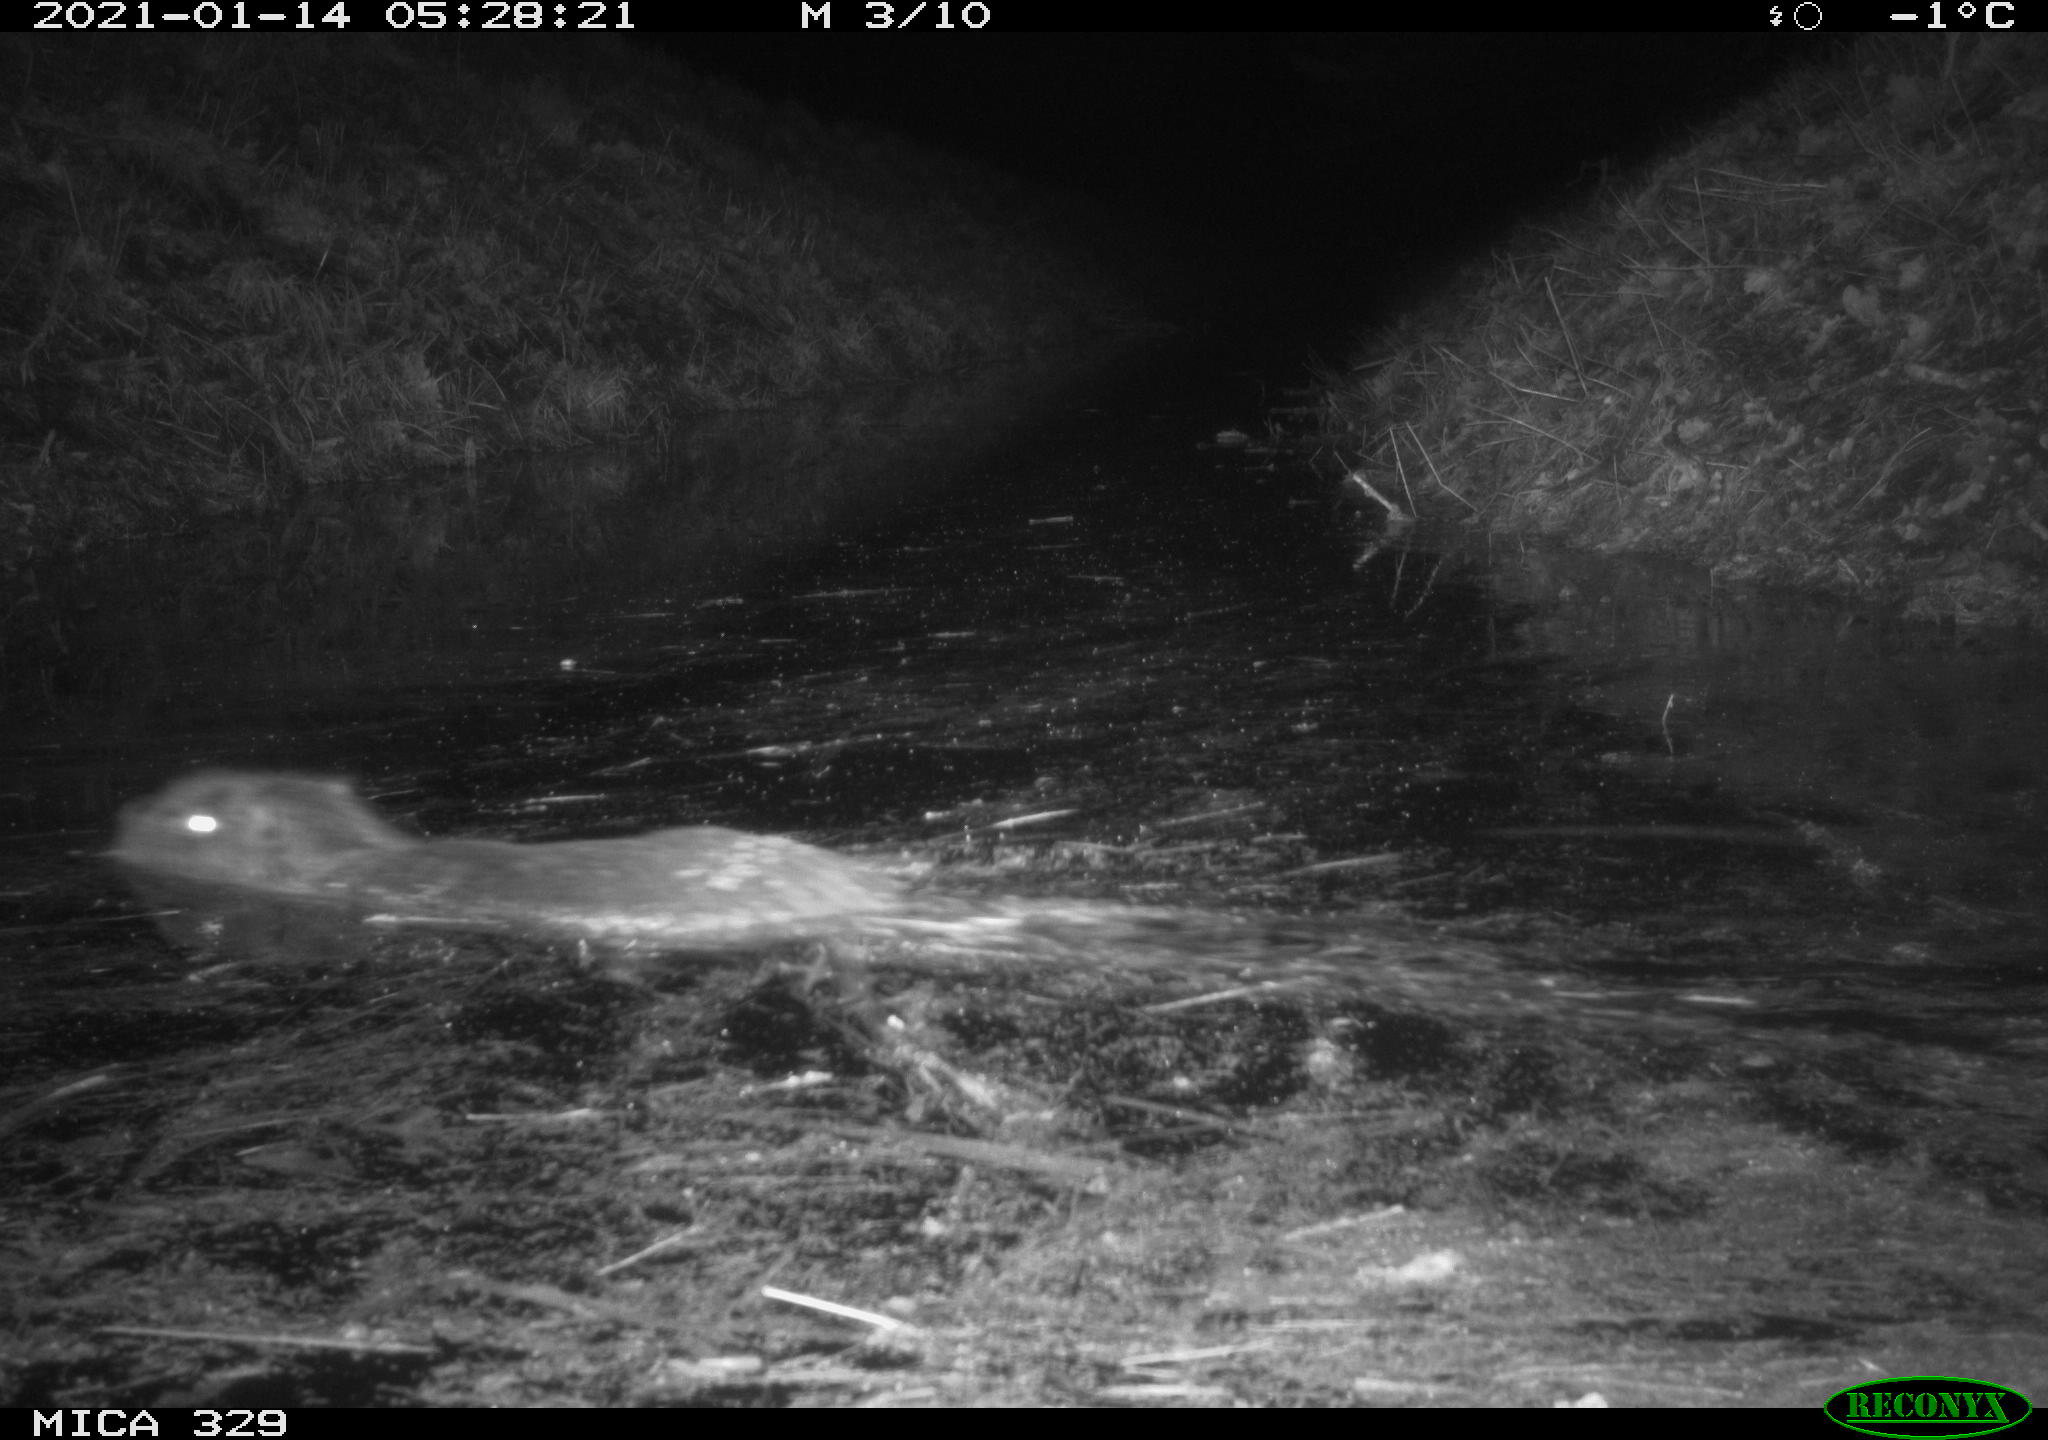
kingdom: Animalia
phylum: Chordata
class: Mammalia
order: Rodentia
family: Myocastoridae
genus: Myocastor
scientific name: Myocastor coypus
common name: Coypu
